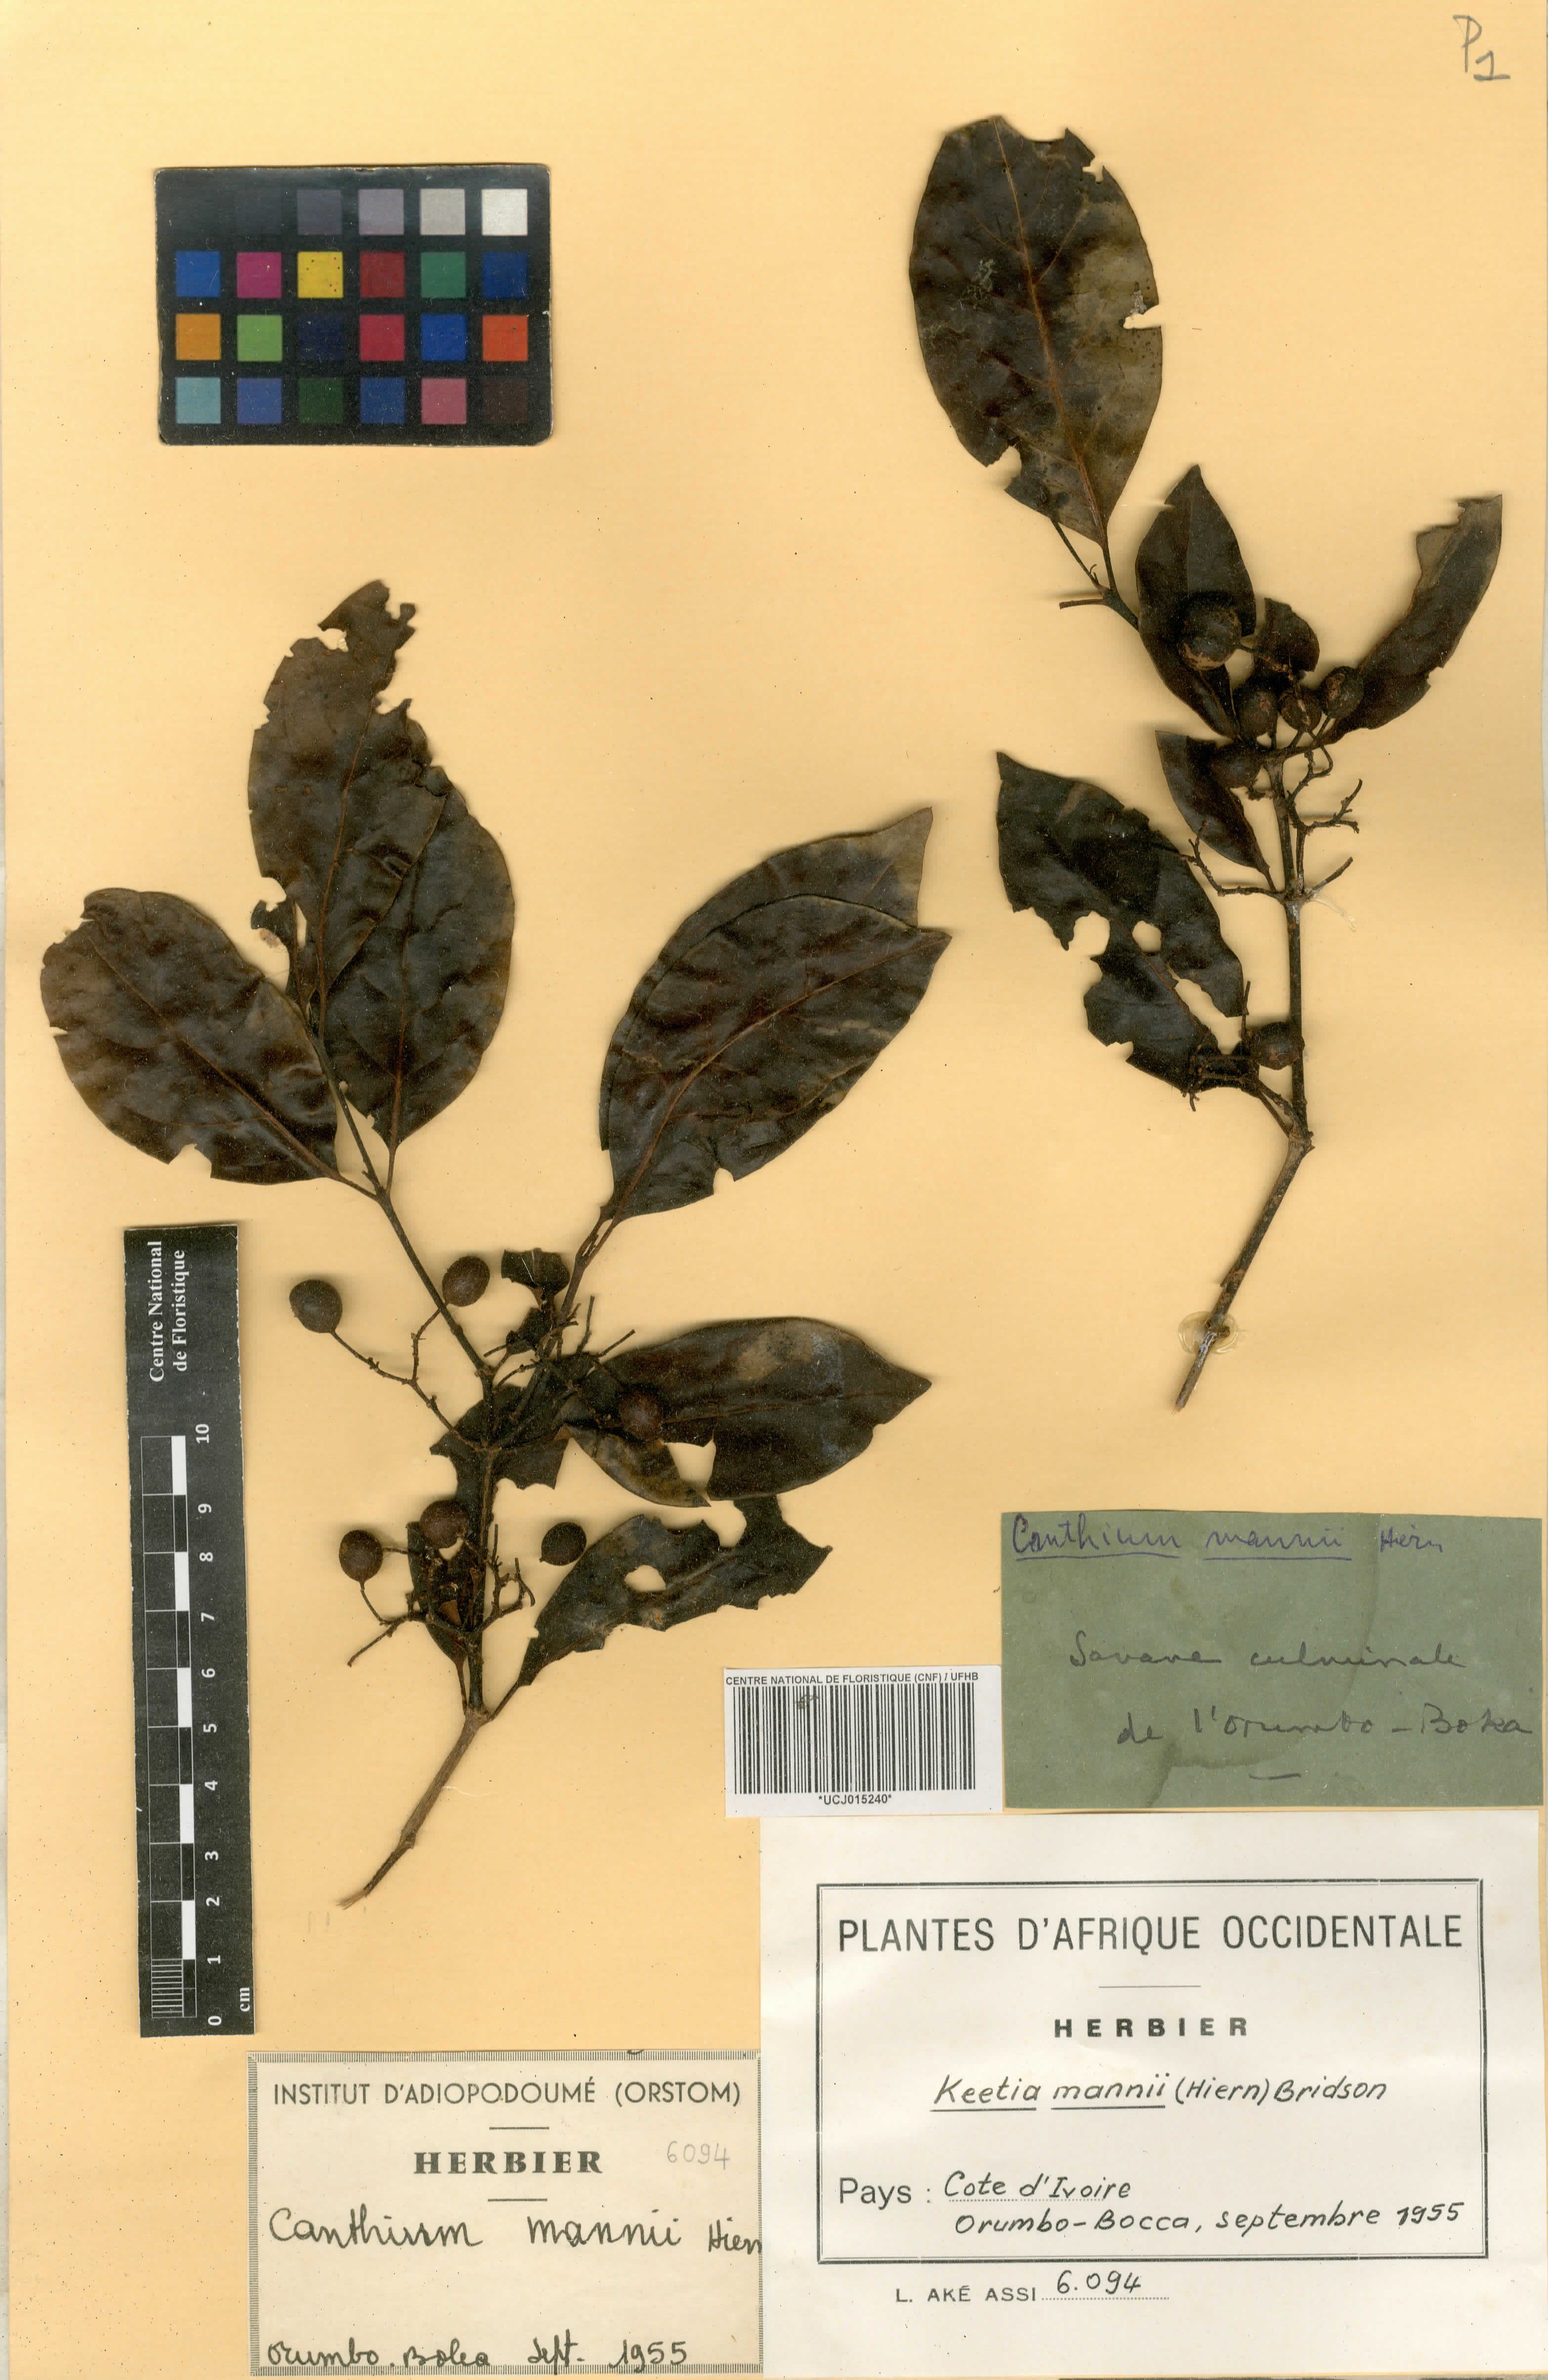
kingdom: Plantae
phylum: Tracheophyta
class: Magnoliopsida
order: Gentianales
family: Rubiaceae
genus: Keetia
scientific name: Keetia mannii
